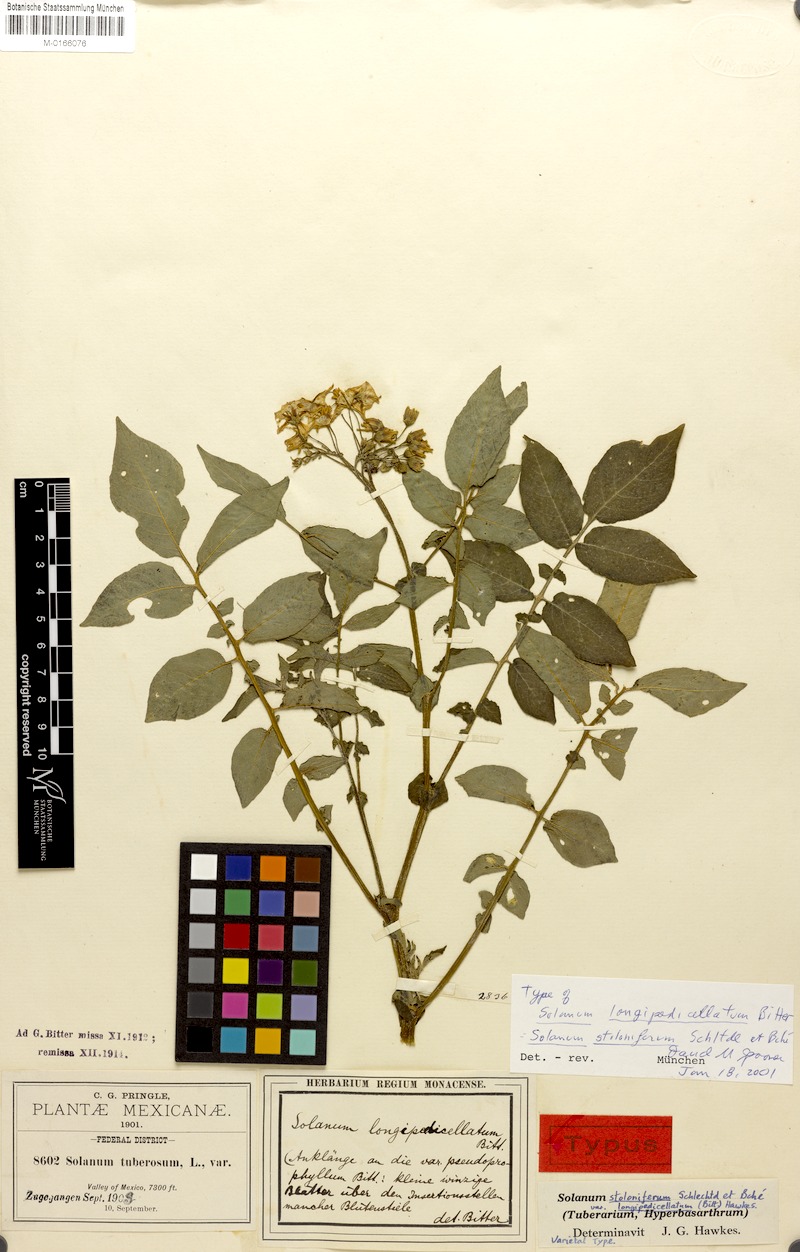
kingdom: Plantae
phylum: Tracheophyta
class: Magnoliopsida
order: Solanales
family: Solanaceae
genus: Solanum
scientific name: Solanum stoloniferum
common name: Fendler's nighshade
